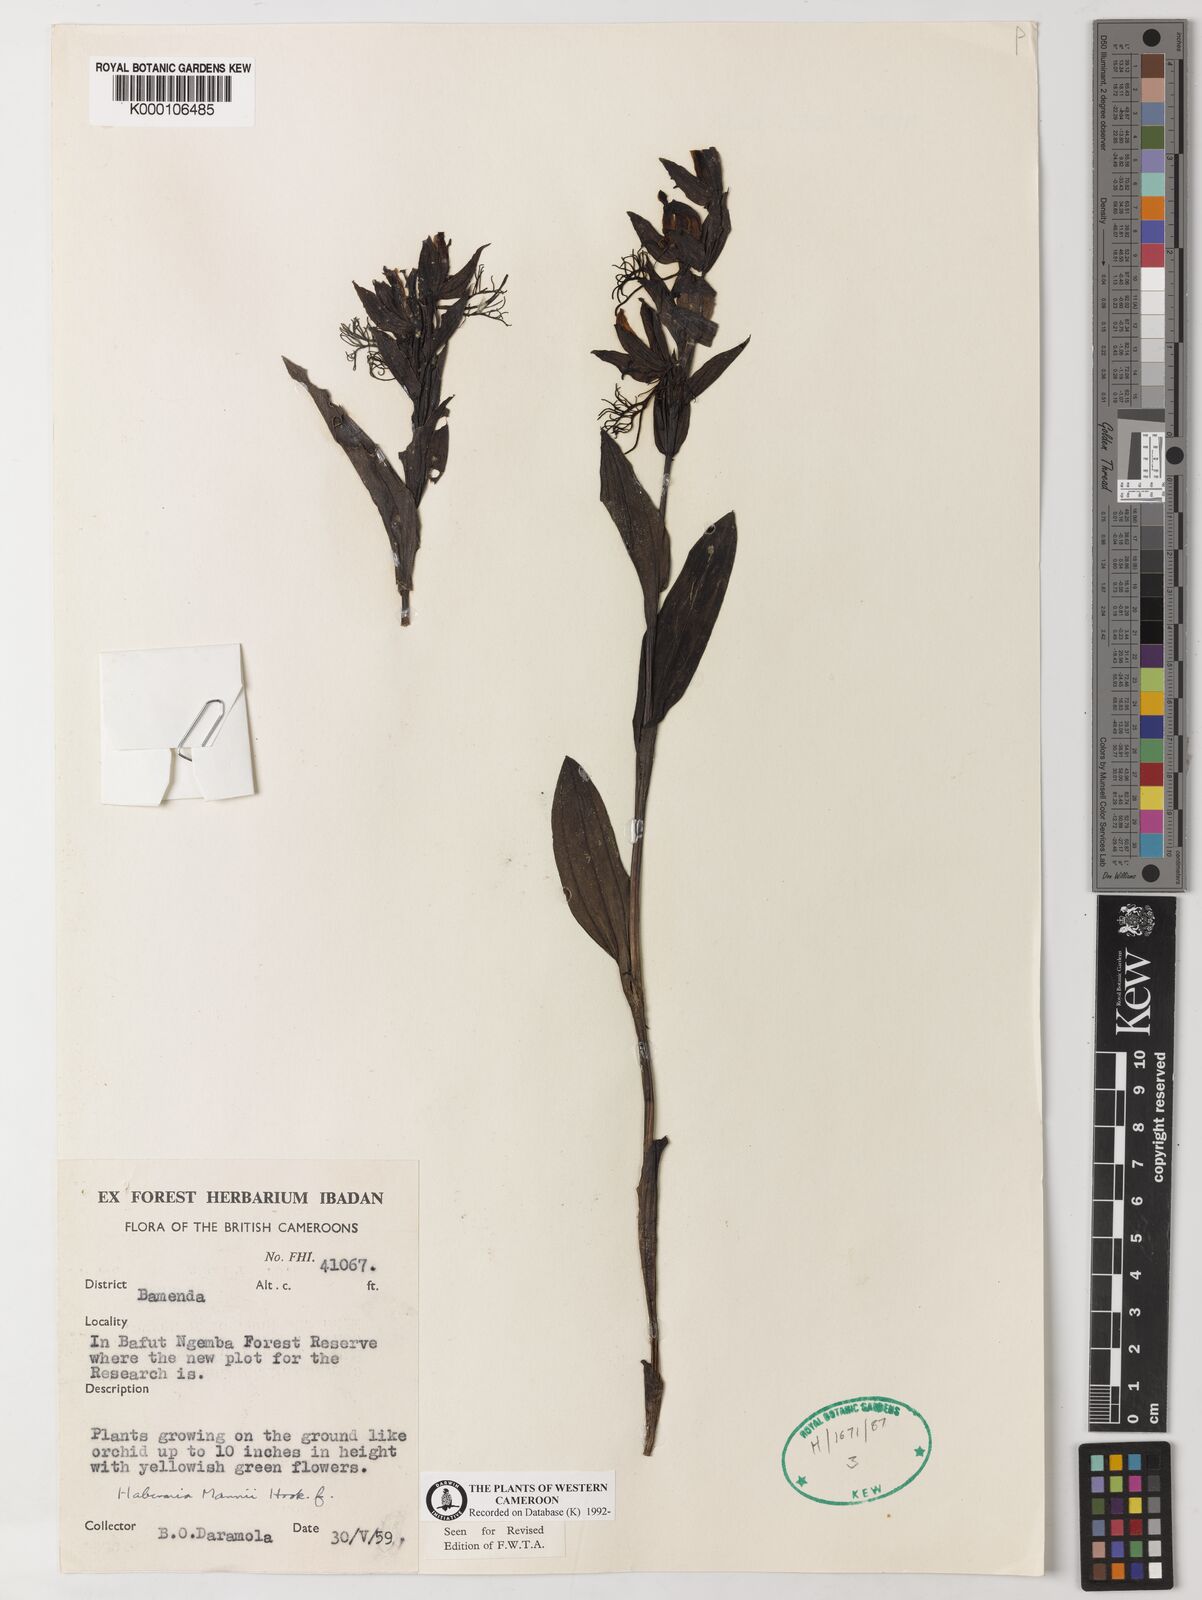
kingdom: Plantae
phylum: Tracheophyta
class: Liliopsida
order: Asparagales
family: Orchidaceae
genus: Habenaria
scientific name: Habenaria mannii
